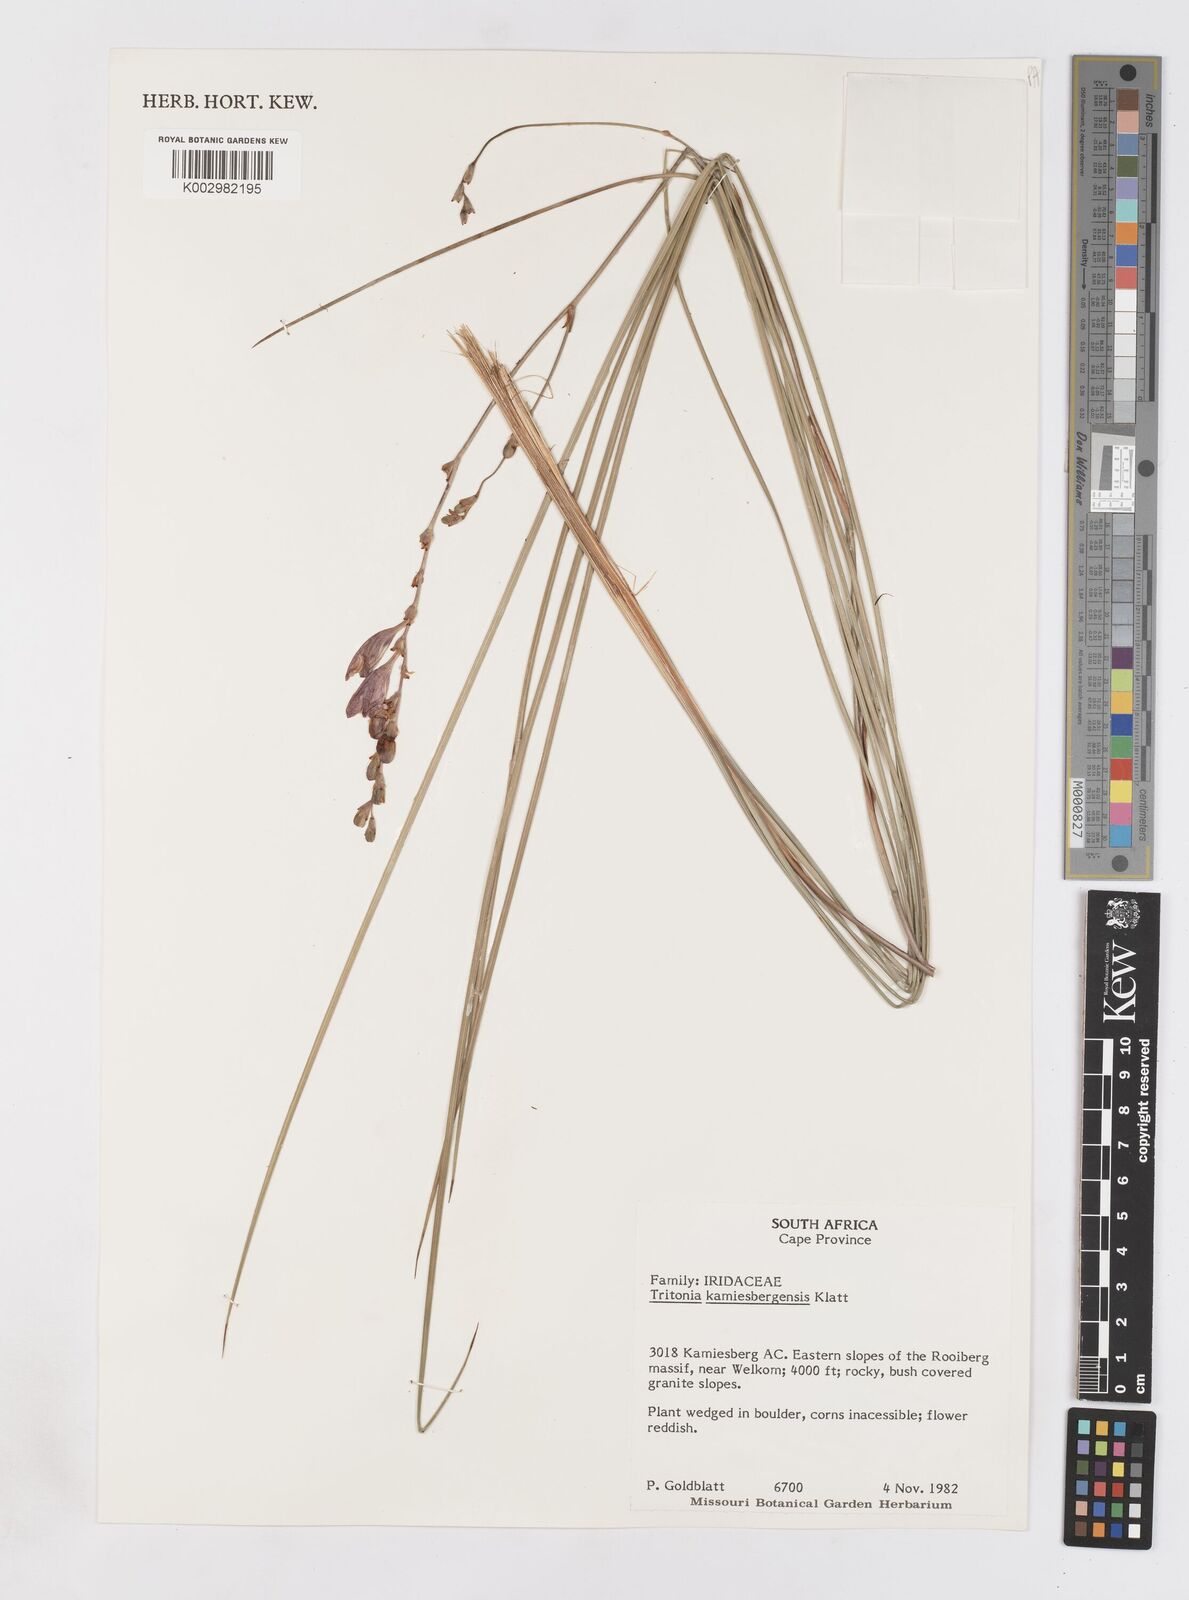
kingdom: Plantae
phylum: Tracheophyta
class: Liliopsida
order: Asparagales
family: Iridaceae
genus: Tritonia
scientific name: Tritonia kamisbergensis
